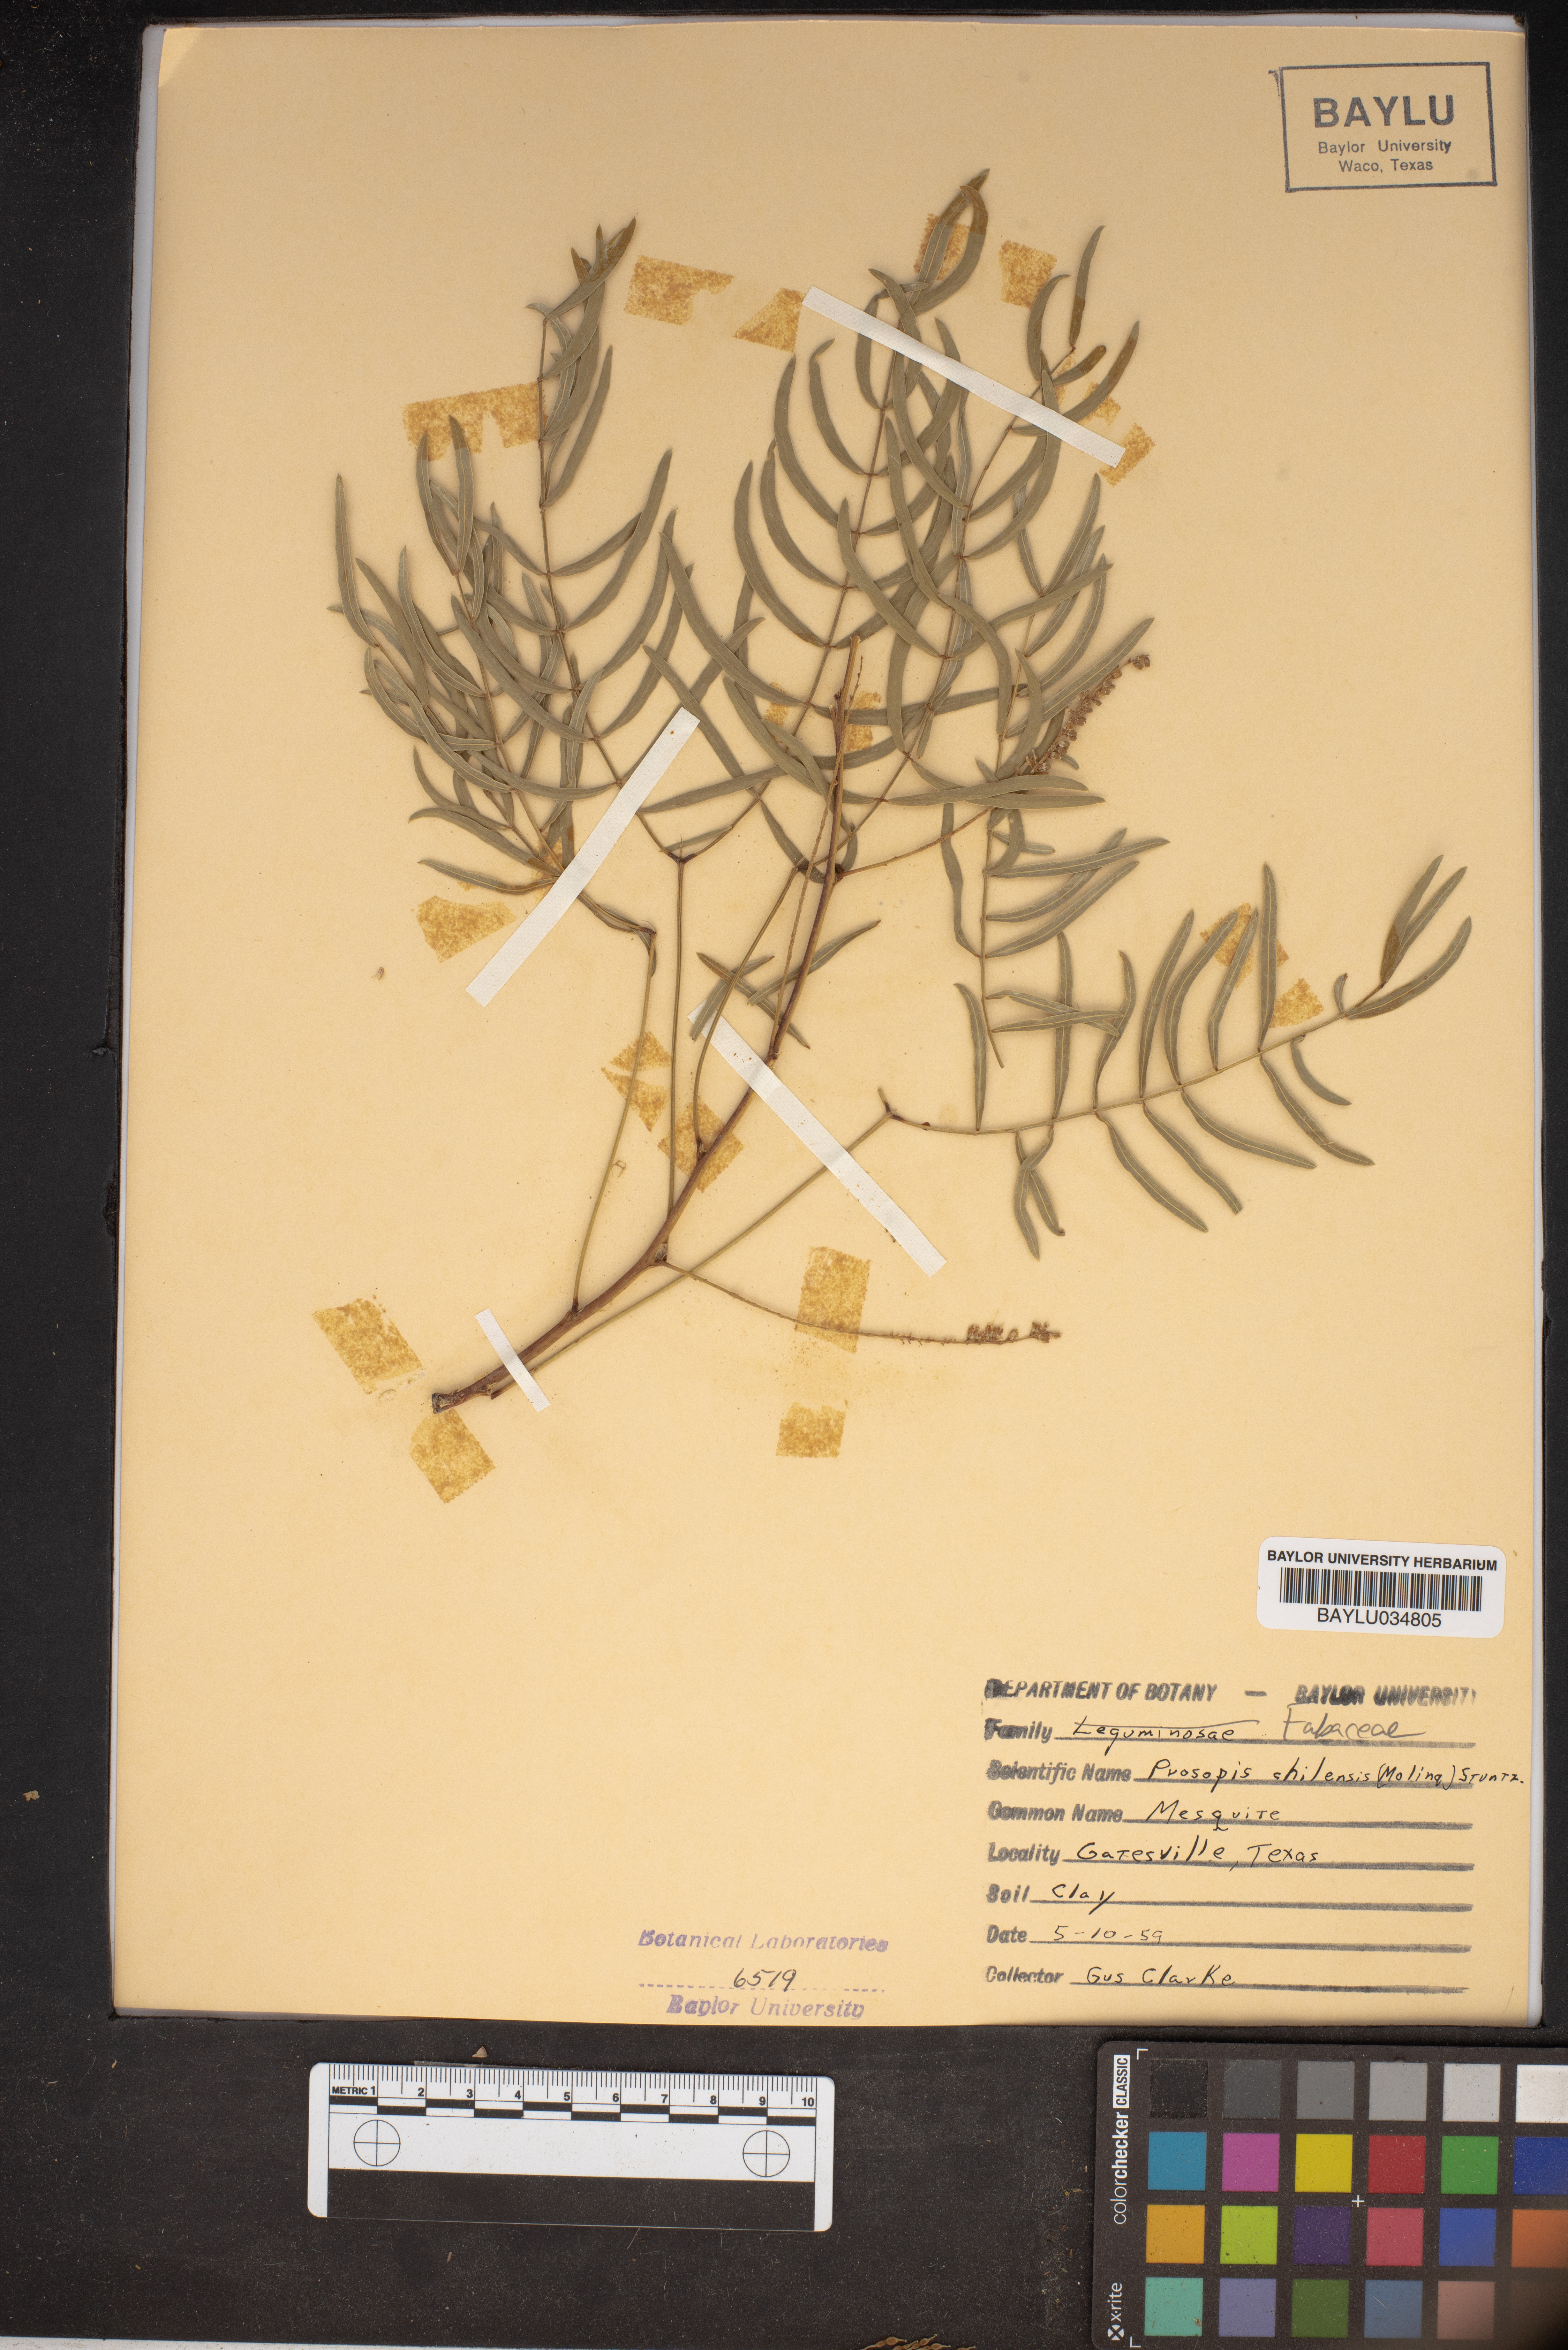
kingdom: Plantae
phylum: Tracheophyta
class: Magnoliopsida
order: Fabales
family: Fabaceae
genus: Prosopis
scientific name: Prosopis chilensis
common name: Chilean algarrobo
